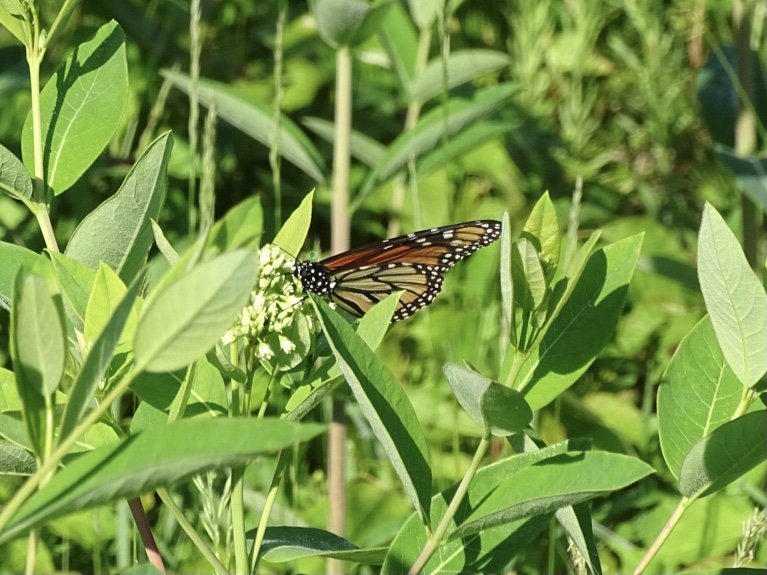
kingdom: Animalia
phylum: Arthropoda
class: Insecta
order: Lepidoptera
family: Nymphalidae
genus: Danaus
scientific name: Danaus plexippus
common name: Monarch
